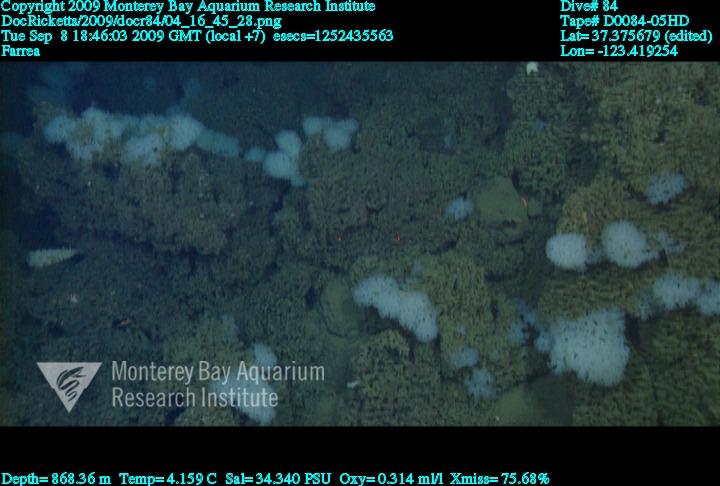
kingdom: Animalia
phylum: Porifera
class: Hexactinellida
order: Sceptrulophora
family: Farreidae
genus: Farrea
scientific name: Farrea
